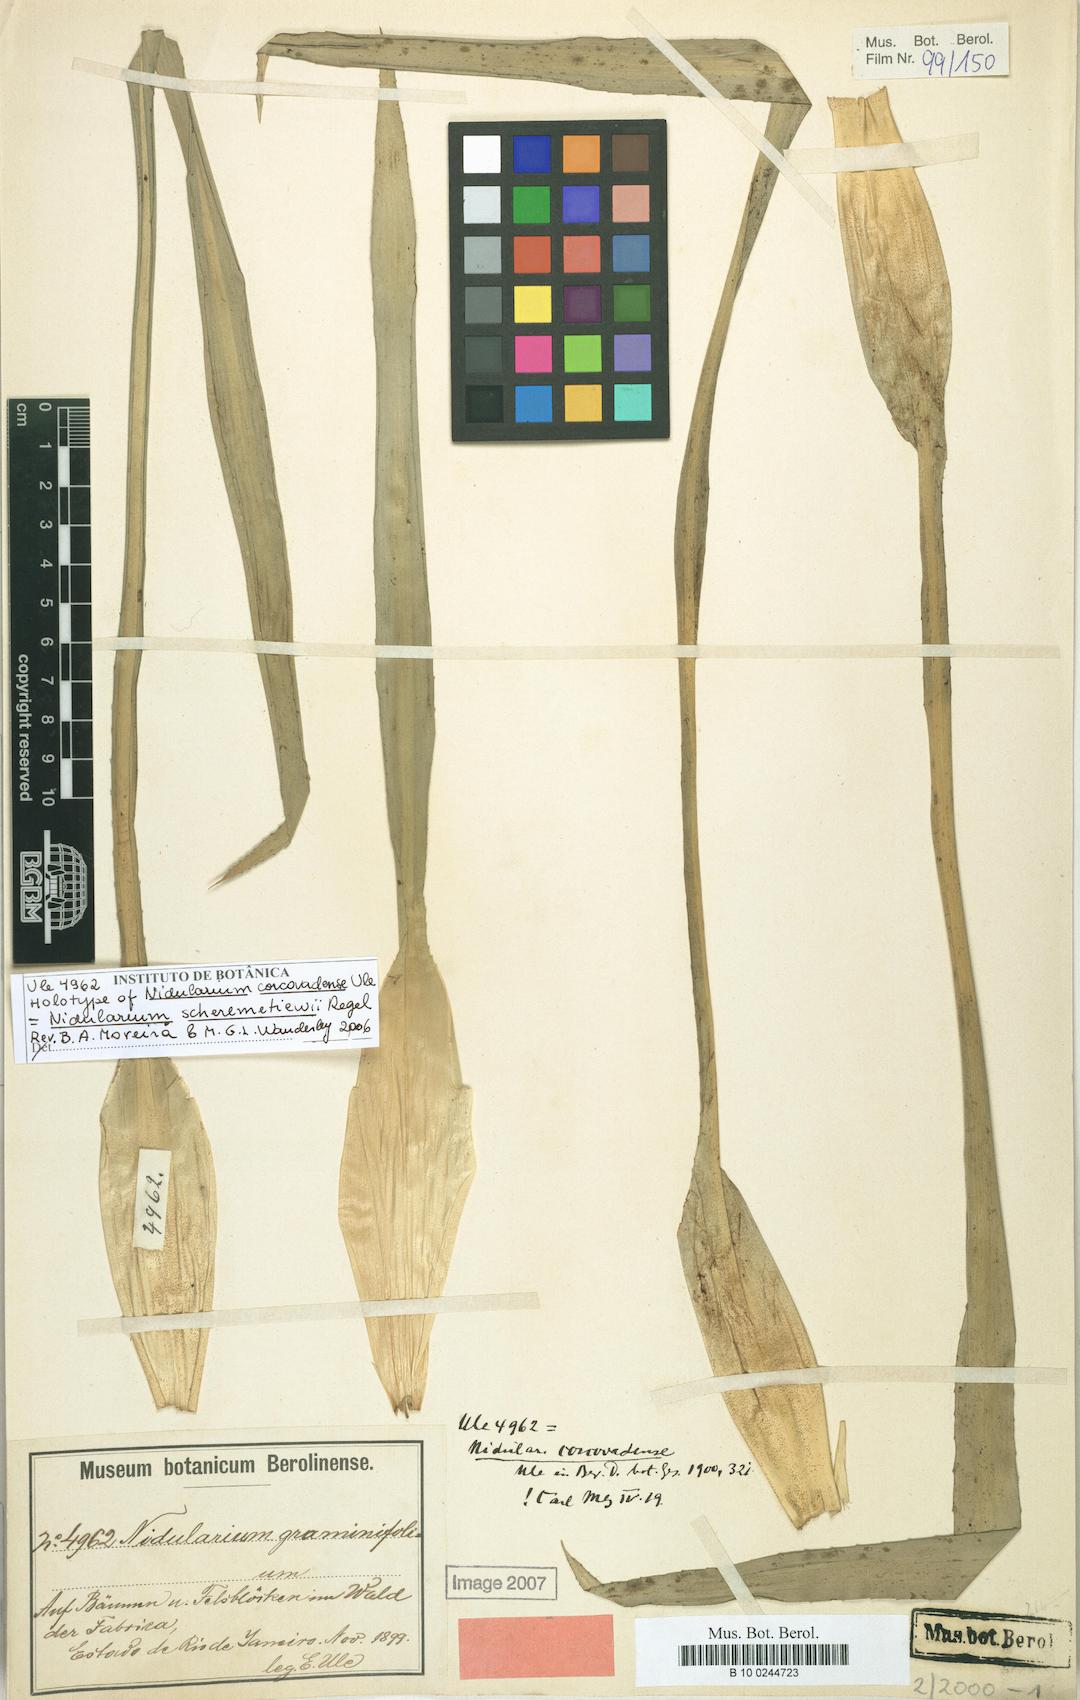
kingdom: Plantae
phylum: Tracheophyta
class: Liliopsida
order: Poales
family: Bromeliaceae
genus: Nidularium
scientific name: Nidularium scheremetiewii
